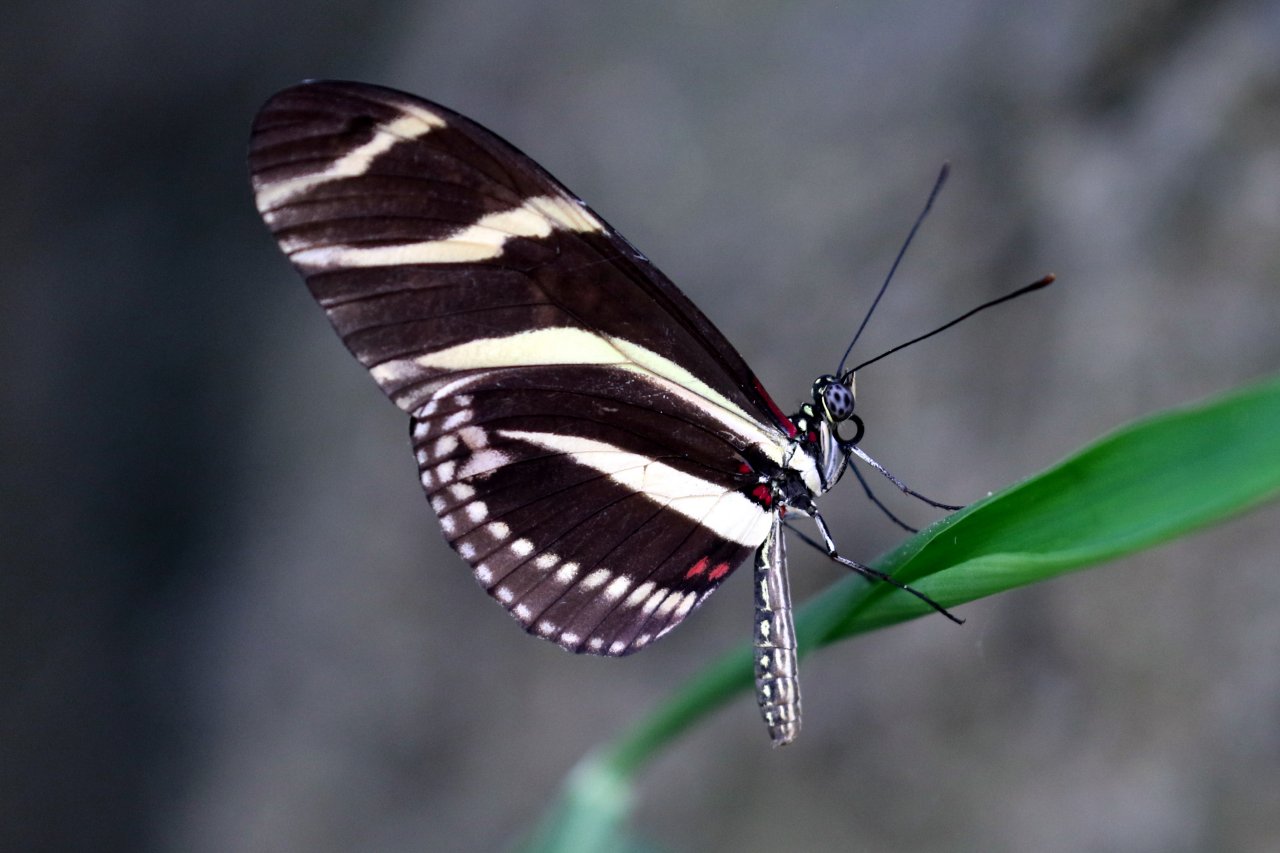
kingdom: Animalia
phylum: Arthropoda
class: Insecta
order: Lepidoptera
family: Nymphalidae
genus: Heliconius
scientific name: Heliconius charithonia
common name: Zebra Longwing
